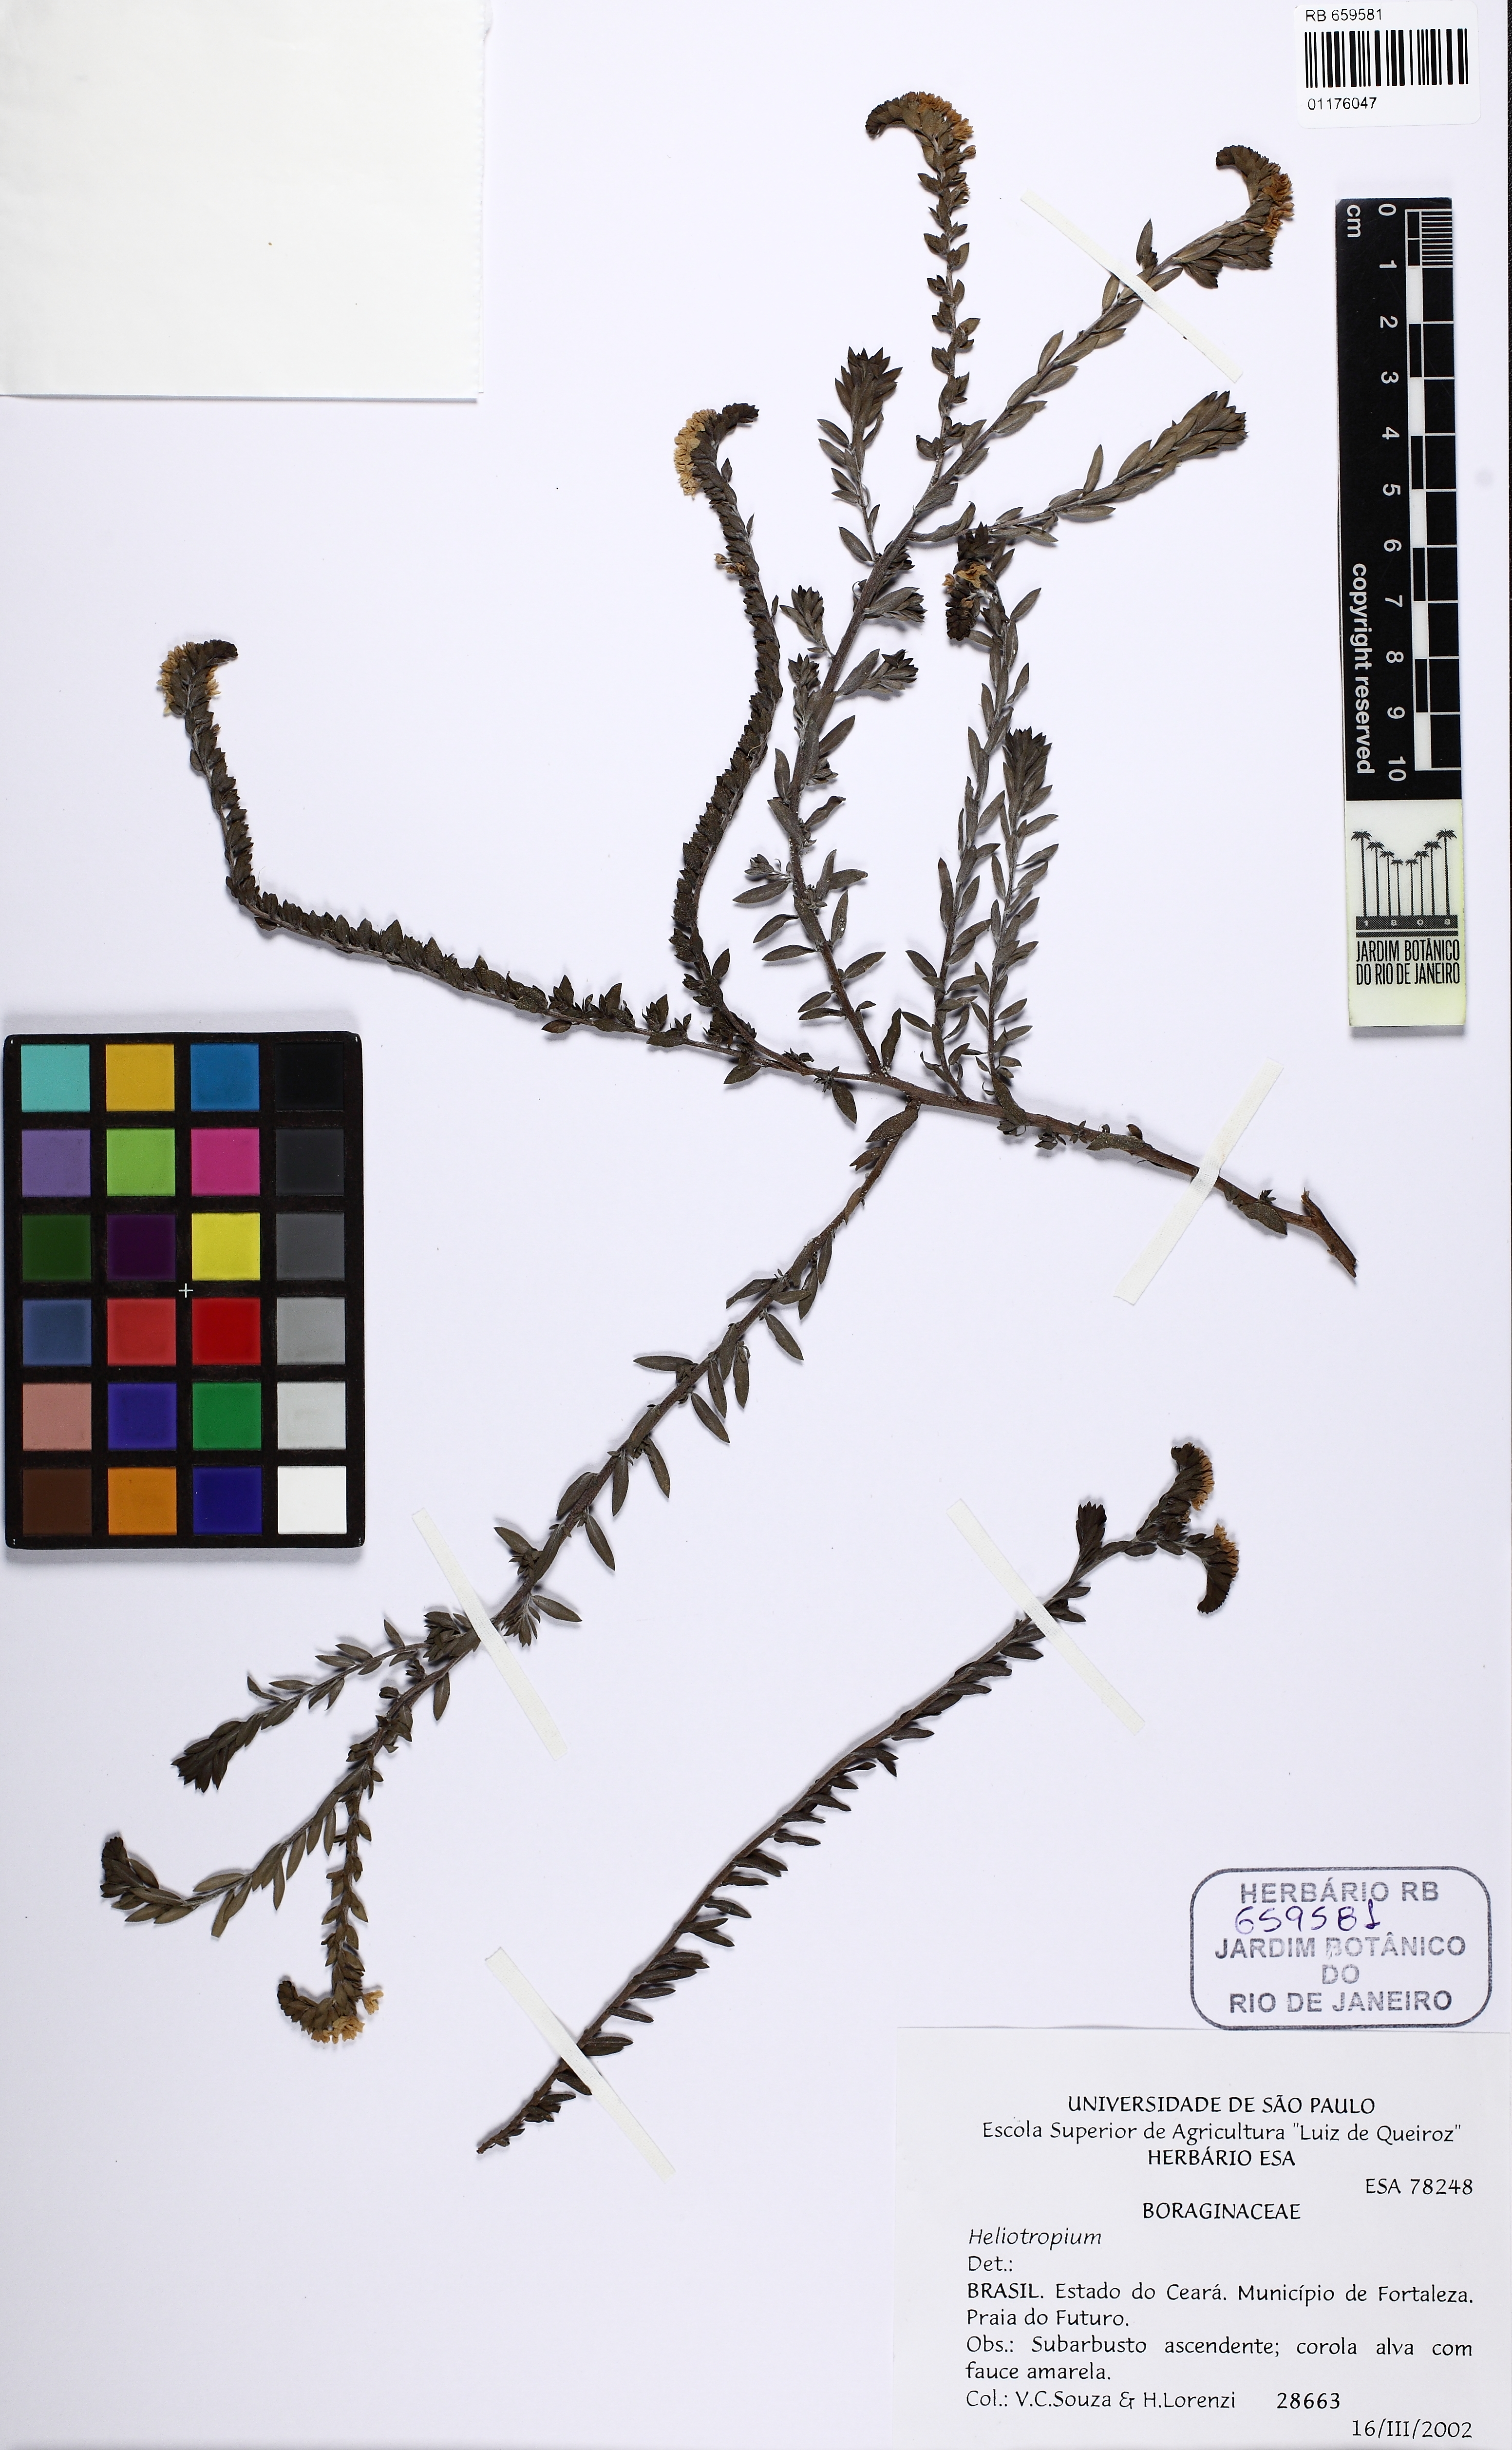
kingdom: Plantae
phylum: Tracheophyta
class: Magnoliopsida
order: Boraginales
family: Heliotropiaceae
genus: Euploca
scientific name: Euploca polyphylla
